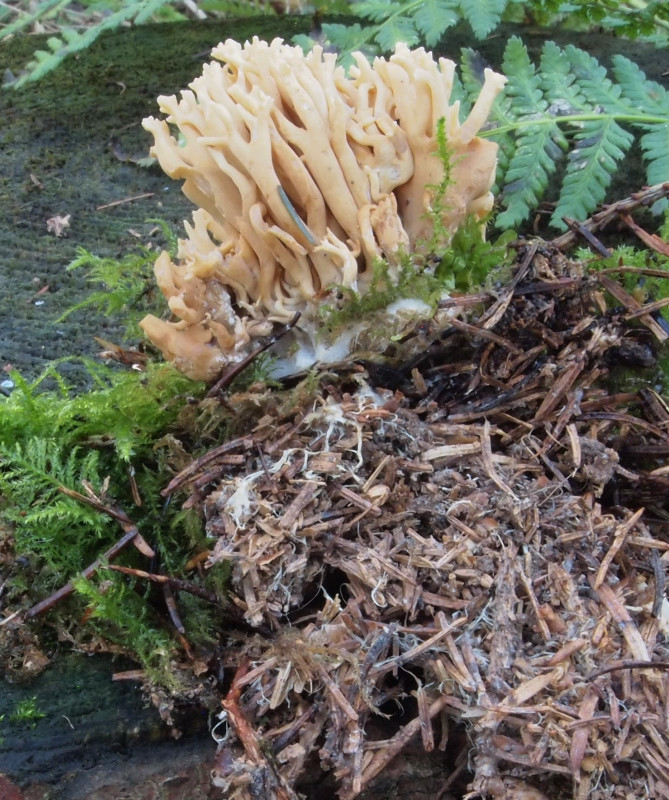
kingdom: Fungi
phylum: Basidiomycota
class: Agaricomycetes
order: Gomphales
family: Gomphaceae
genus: Phaeoclavulina
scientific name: Phaeoclavulina eumorpha
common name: gran-koralsvamp
